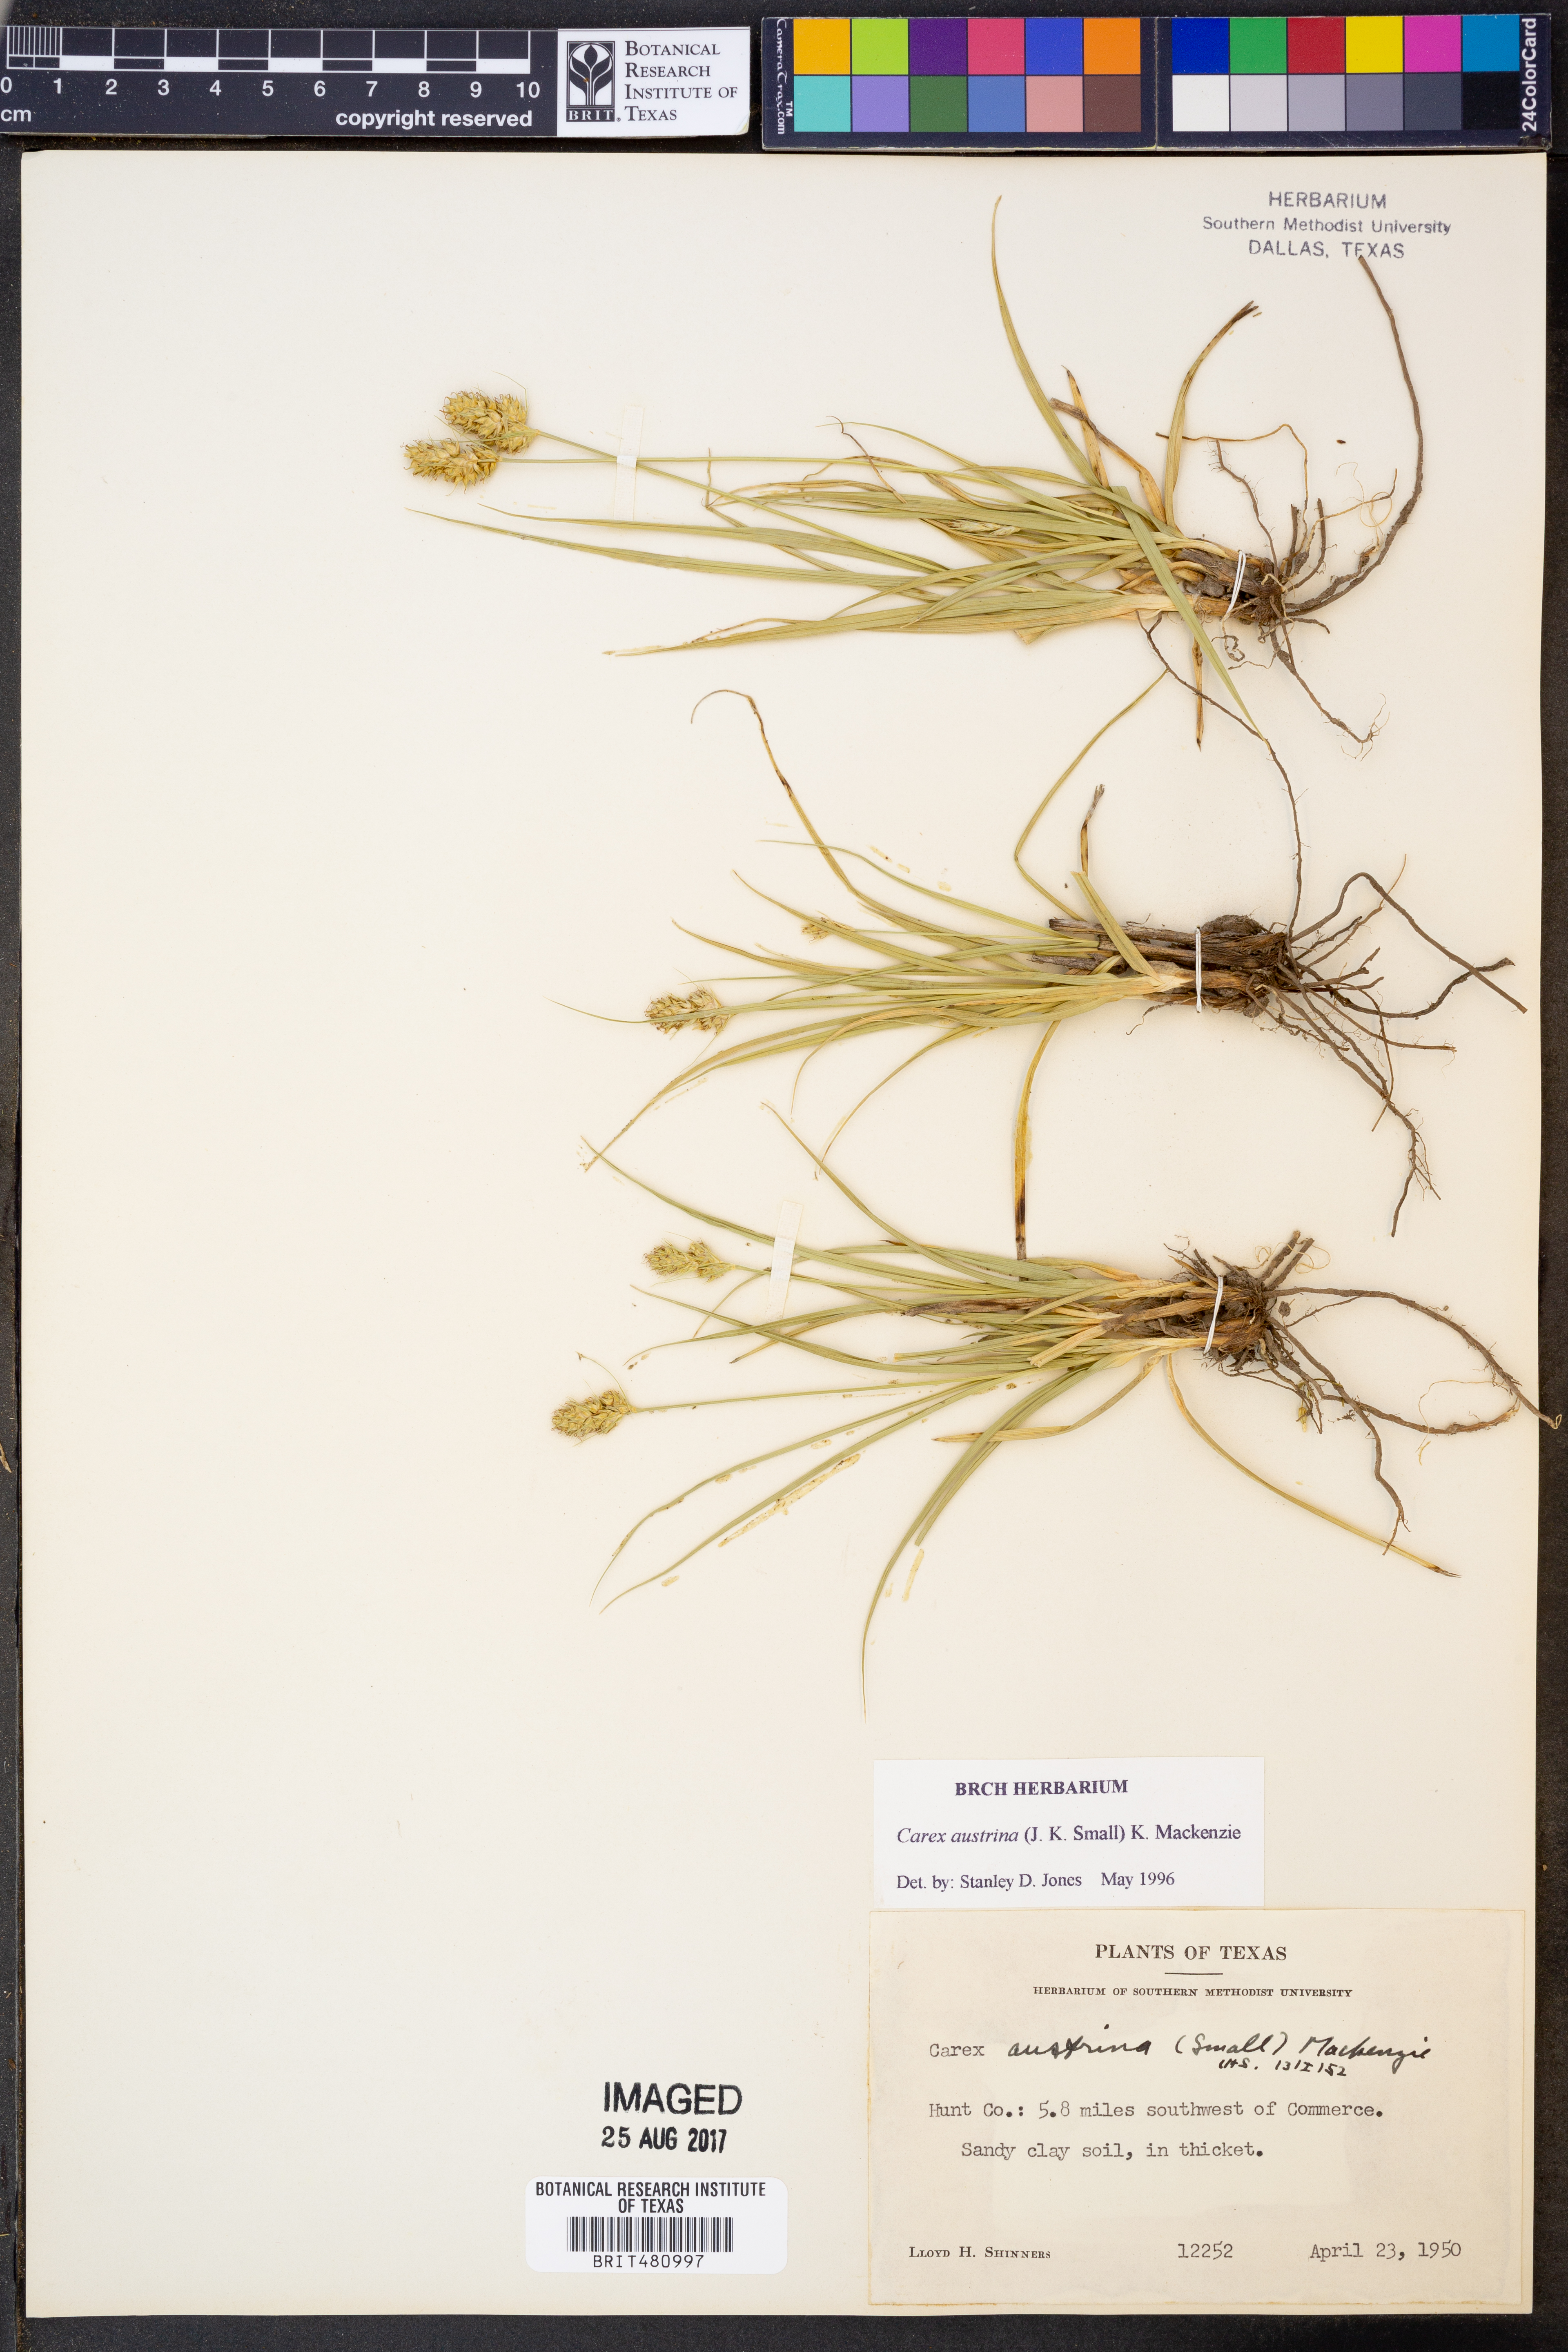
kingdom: Plantae
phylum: Tracheophyta
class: Liliopsida
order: Poales
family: Cyperaceae
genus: Carex
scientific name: Carex austrina
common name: Southern sedge
